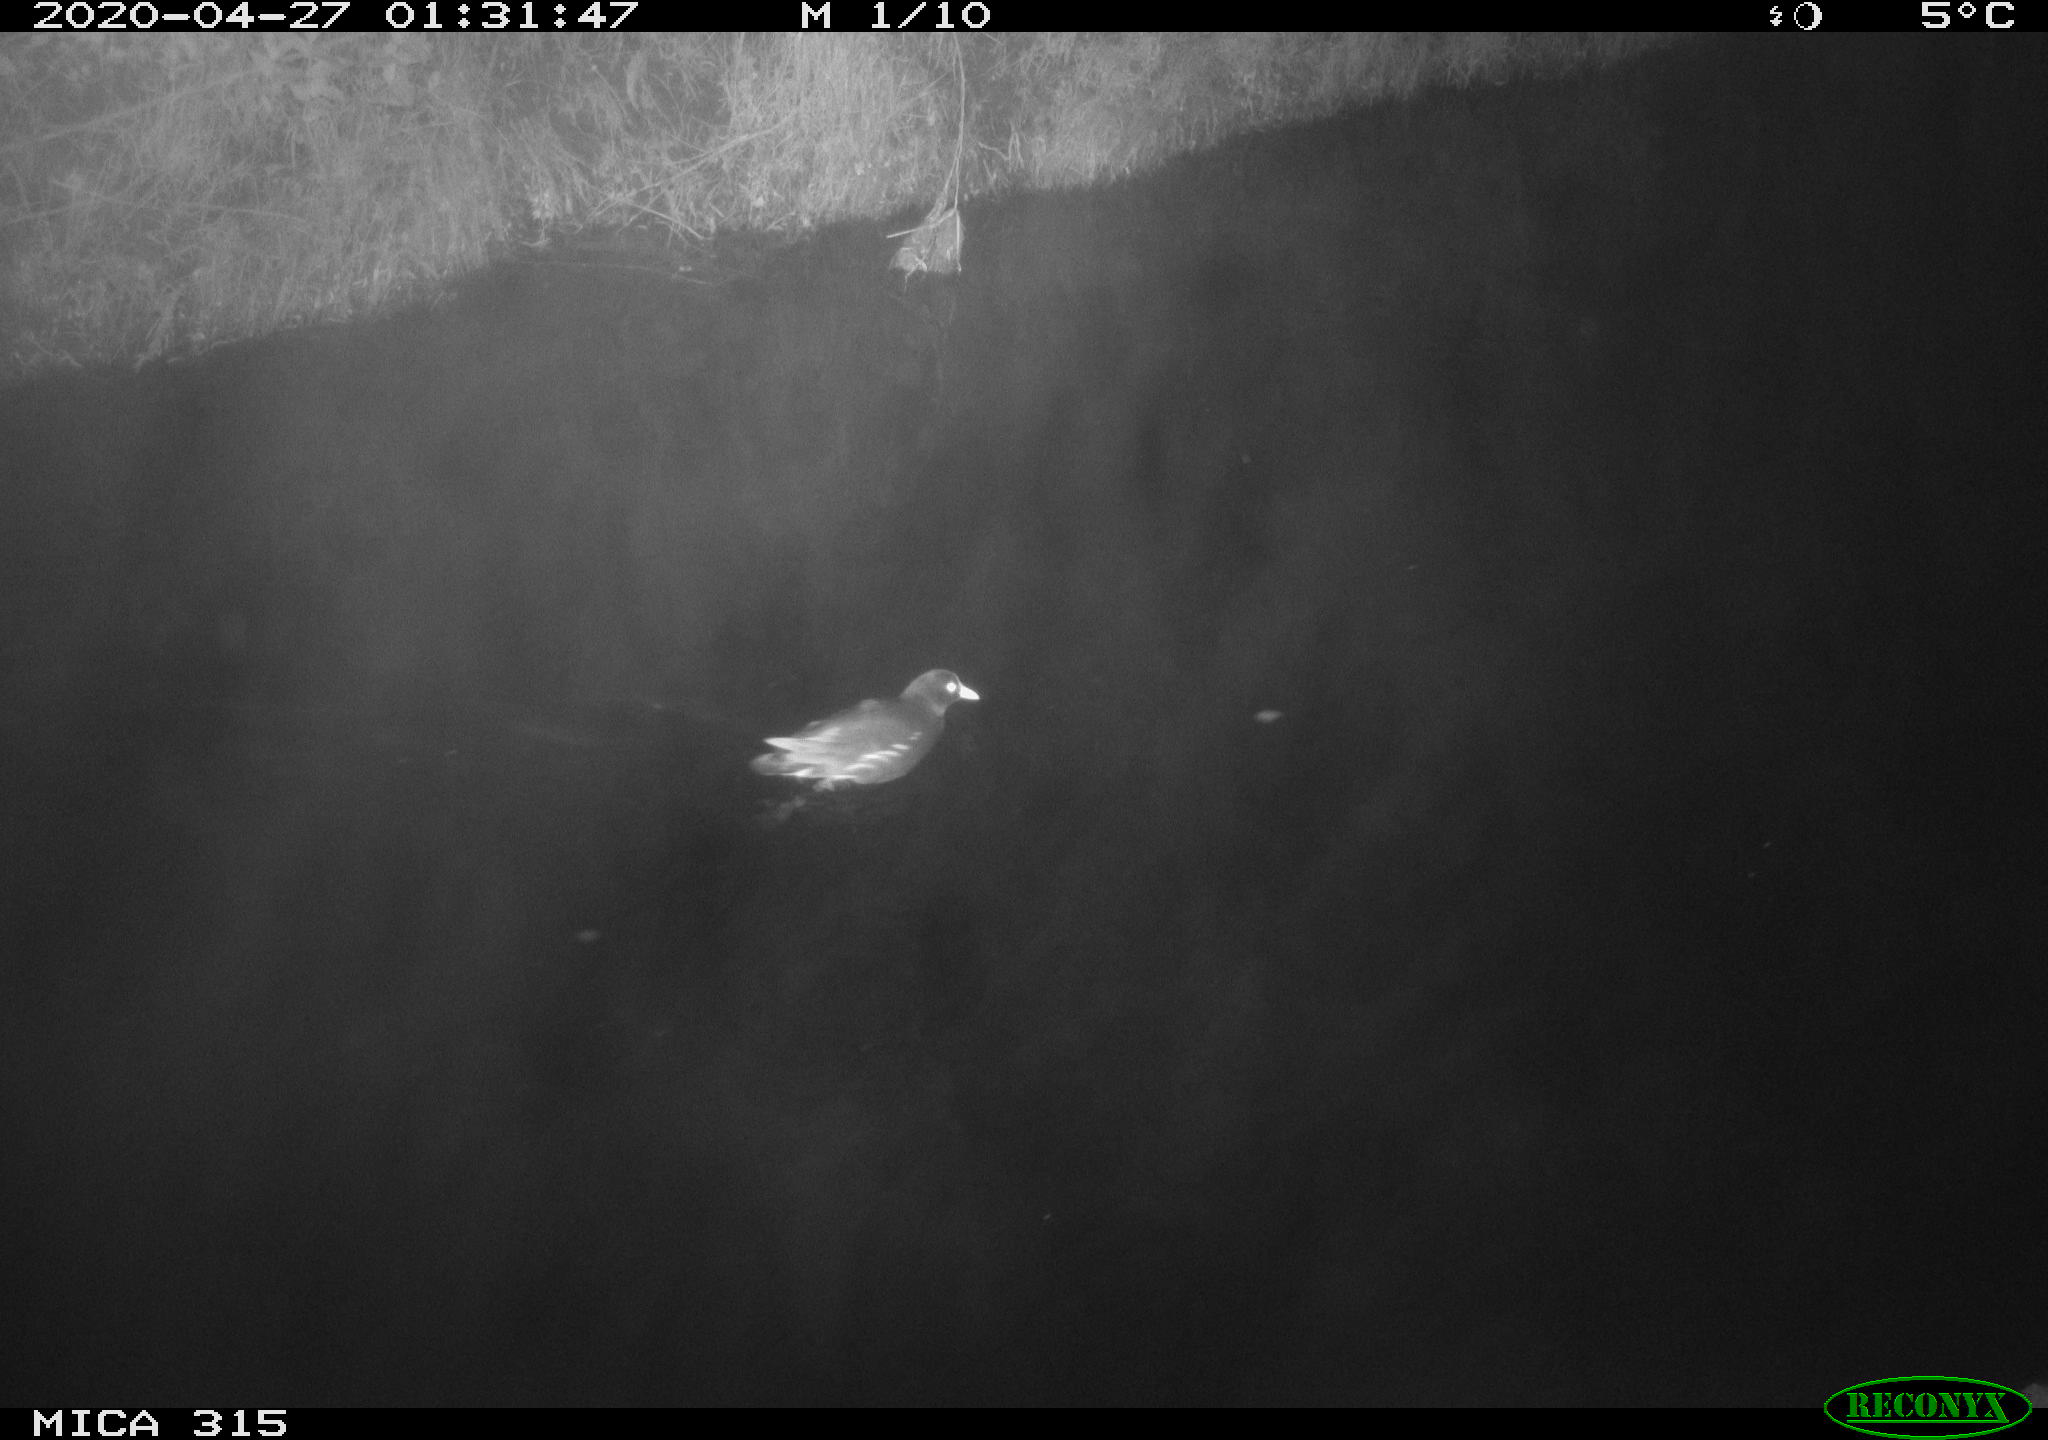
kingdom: Animalia
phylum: Chordata
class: Aves
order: Gruiformes
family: Rallidae
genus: Gallinula
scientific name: Gallinula chloropus
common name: Common moorhen
